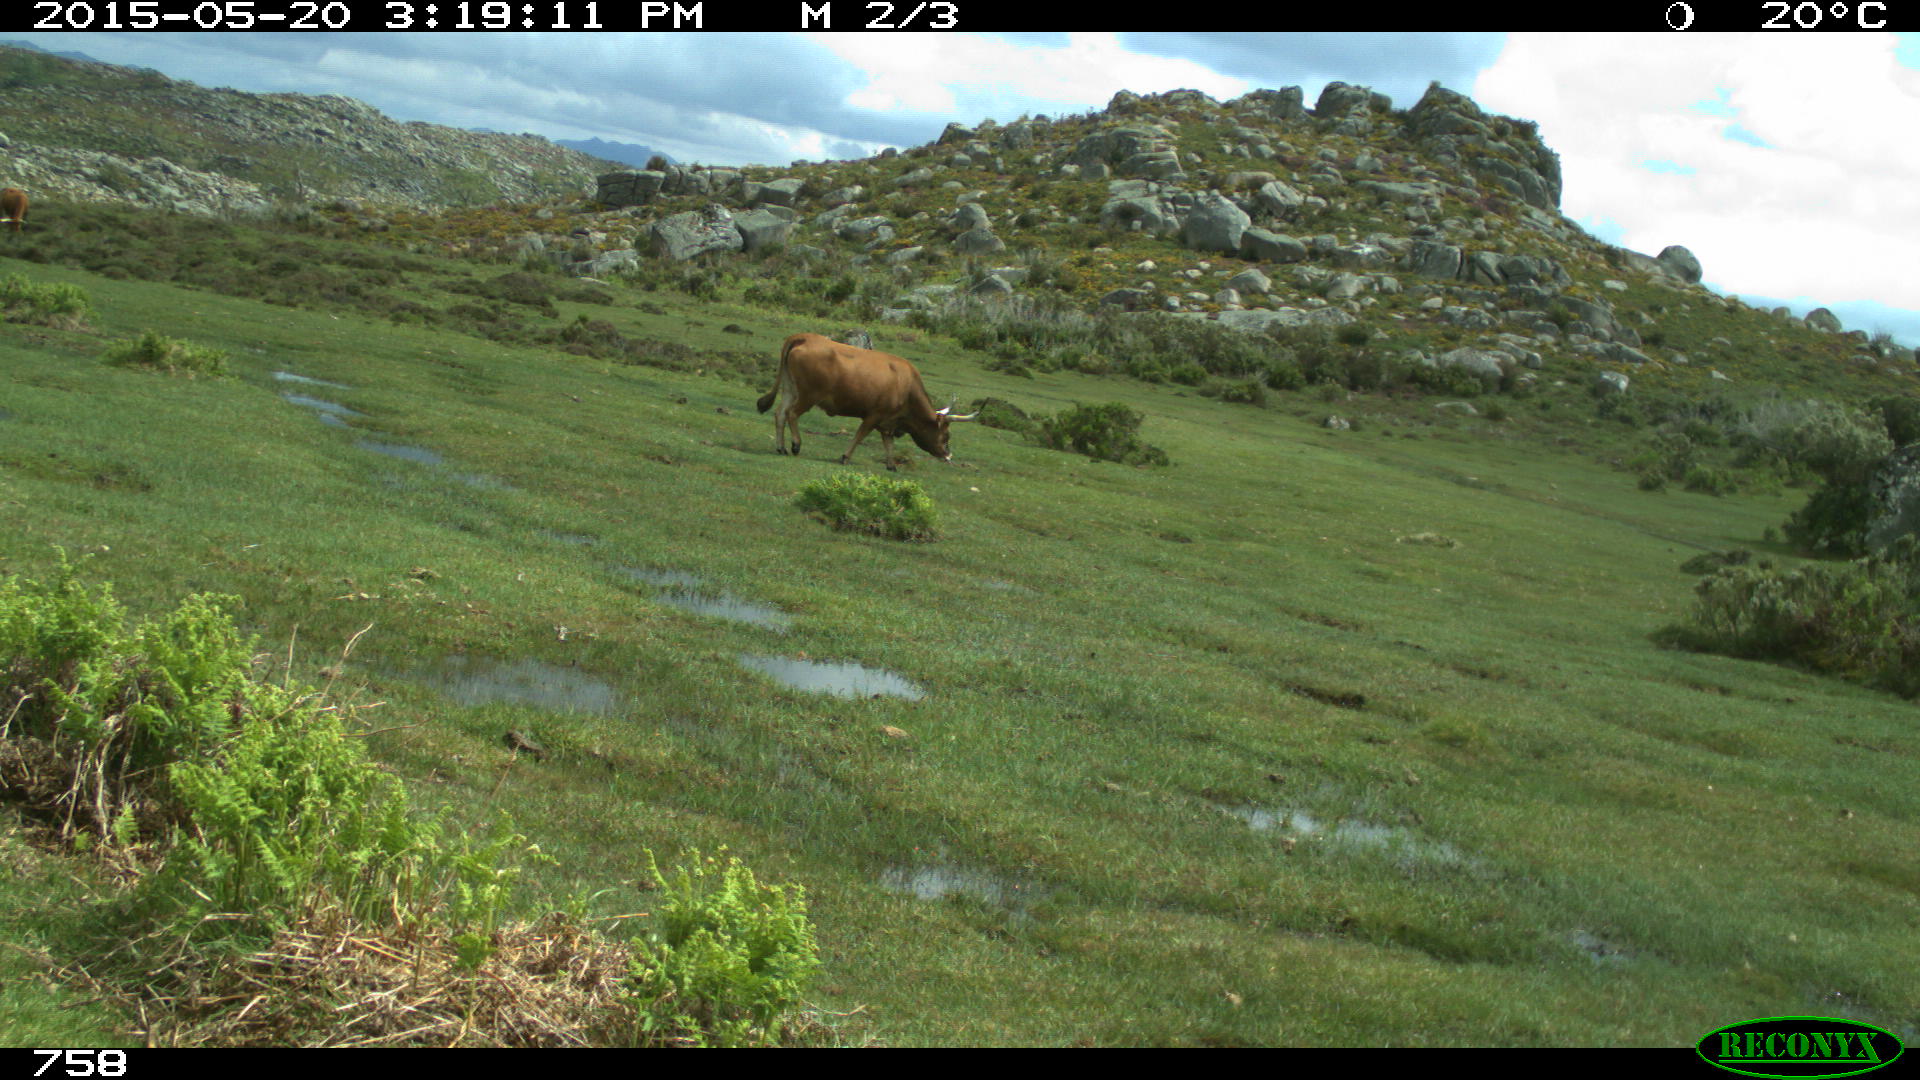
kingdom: Animalia
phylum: Chordata
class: Mammalia
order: Artiodactyla
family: Bovidae
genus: Bos
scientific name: Bos taurus
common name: Domesticated cattle
